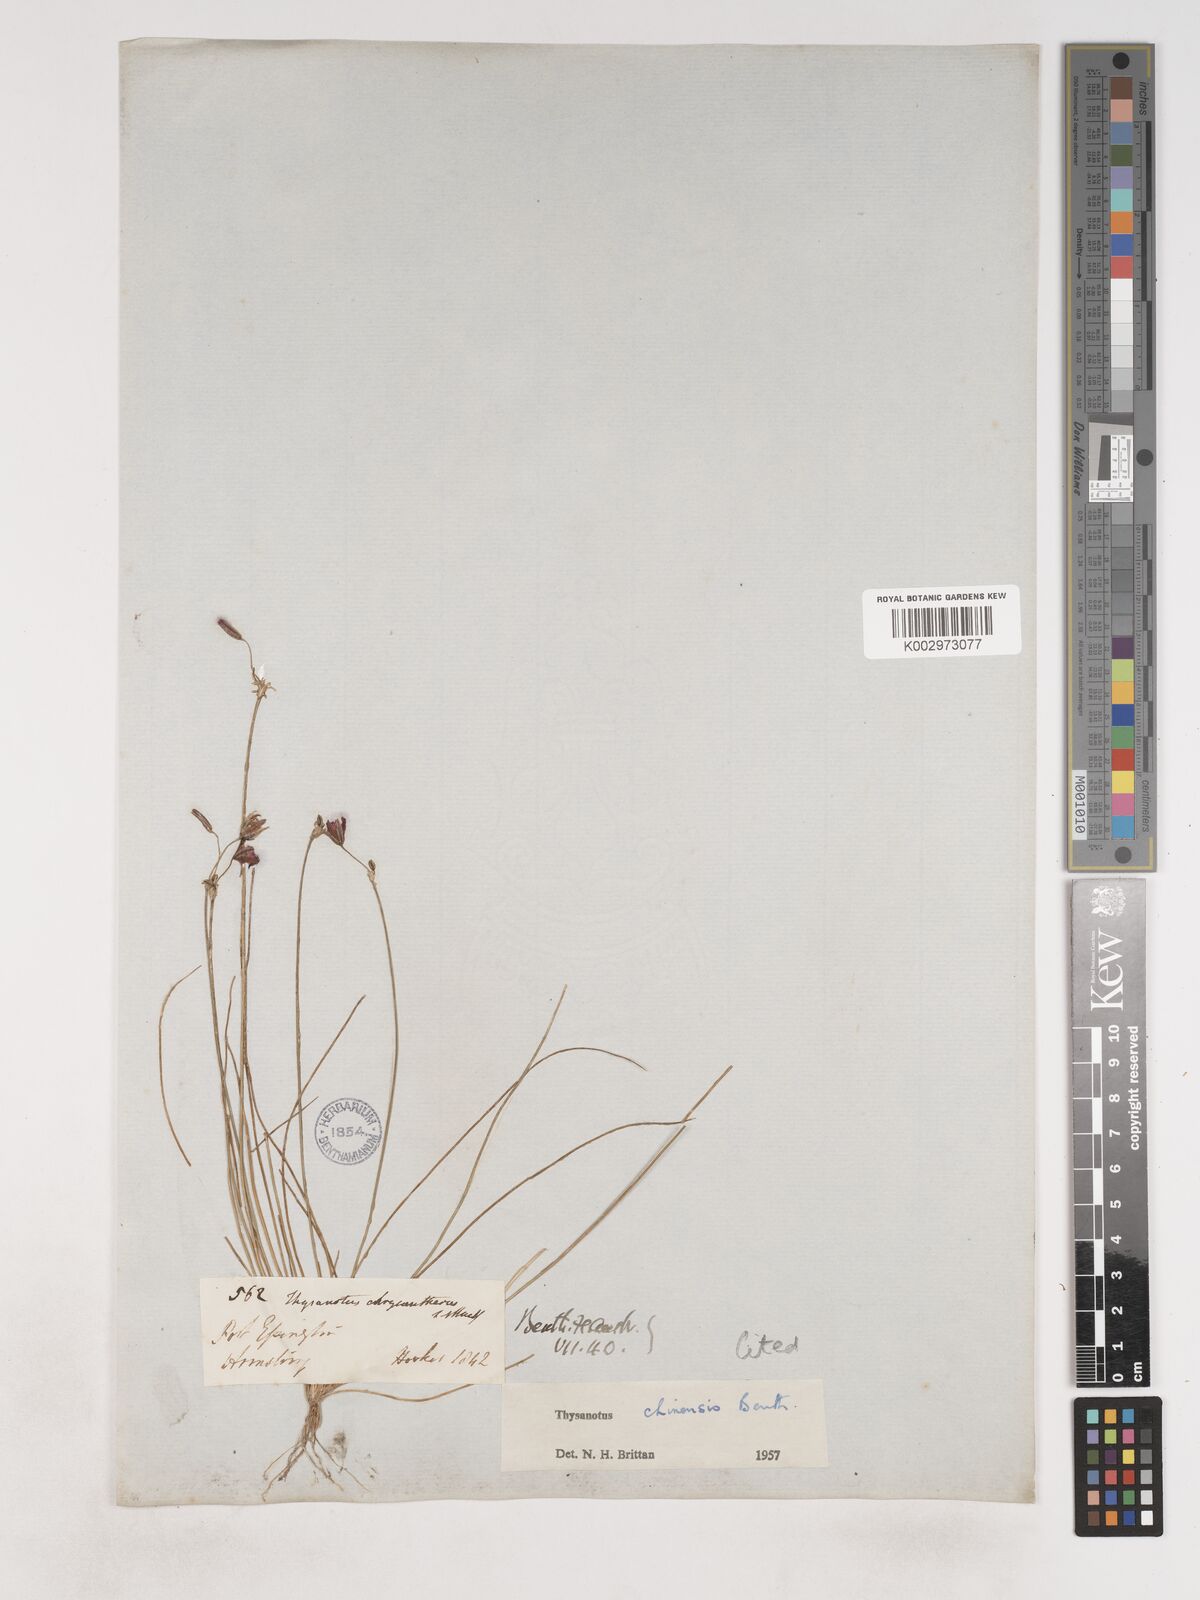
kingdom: Plantae
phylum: Tracheophyta
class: Liliopsida
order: Asparagales
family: Asparagaceae
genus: Thysanotus
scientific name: Thysanotus chinensis
